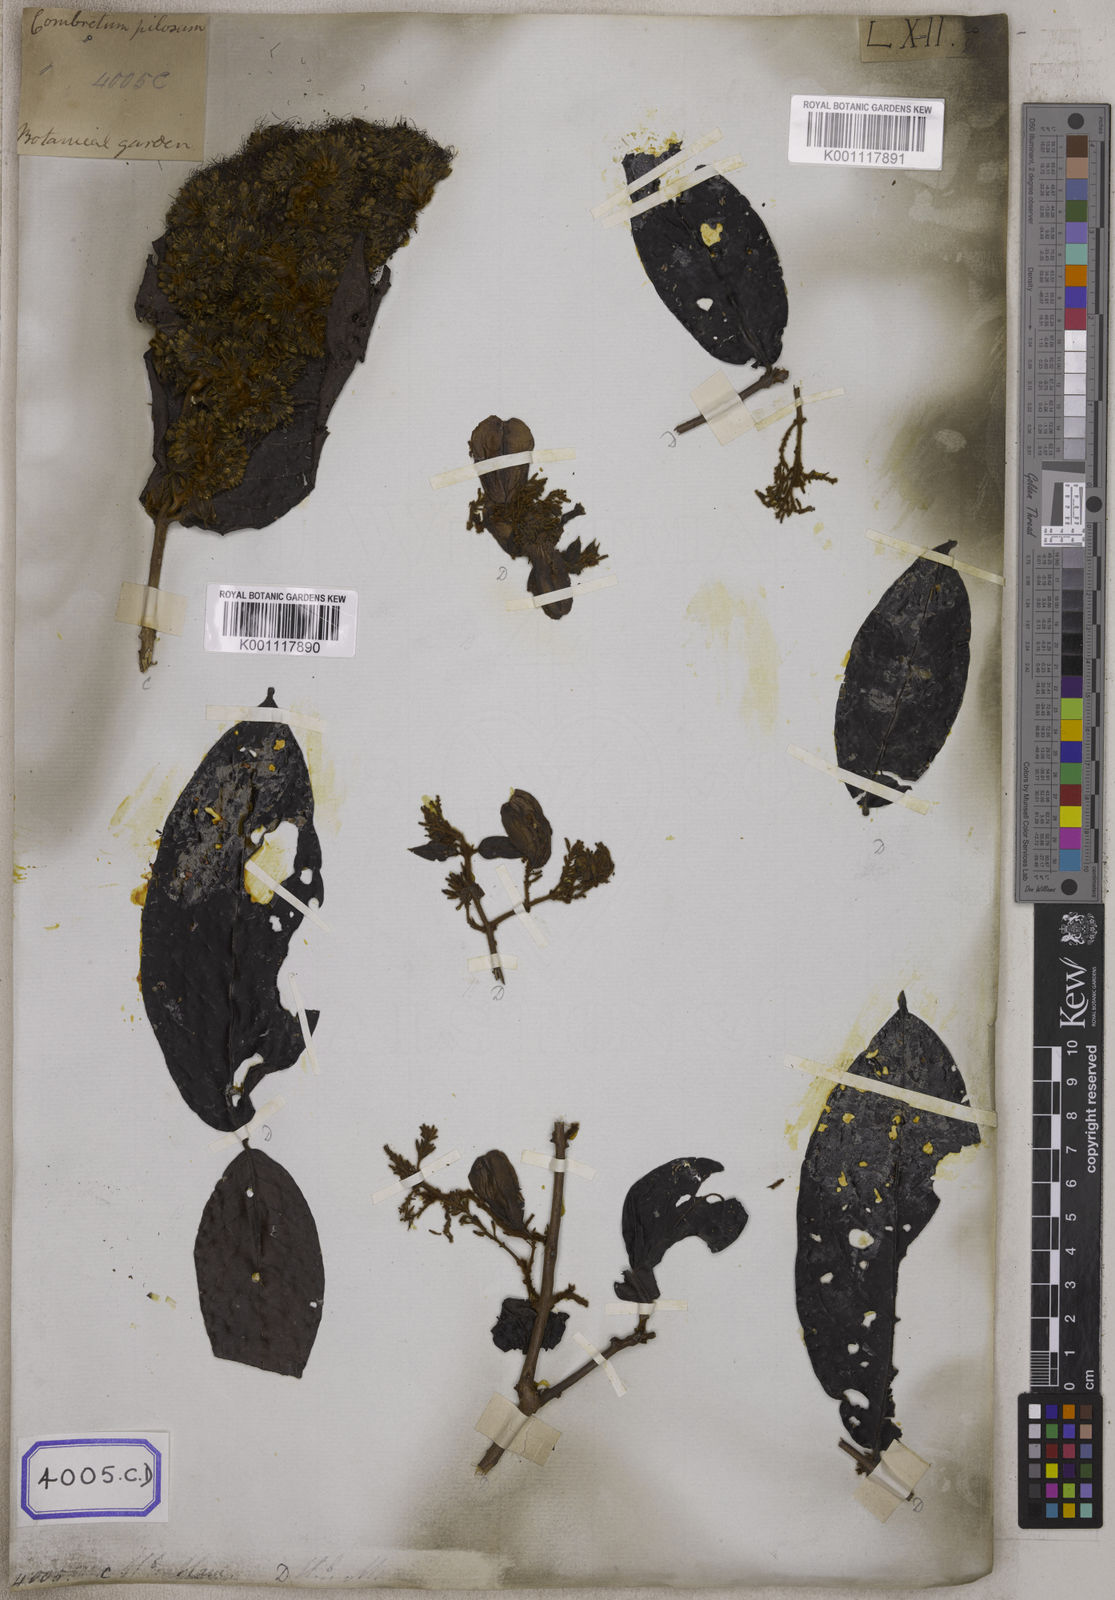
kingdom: Plantae
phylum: Tracheophyta
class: Magnoliopsida
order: Myrtales
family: Combretaceae
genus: Combretum
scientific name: Combretum
